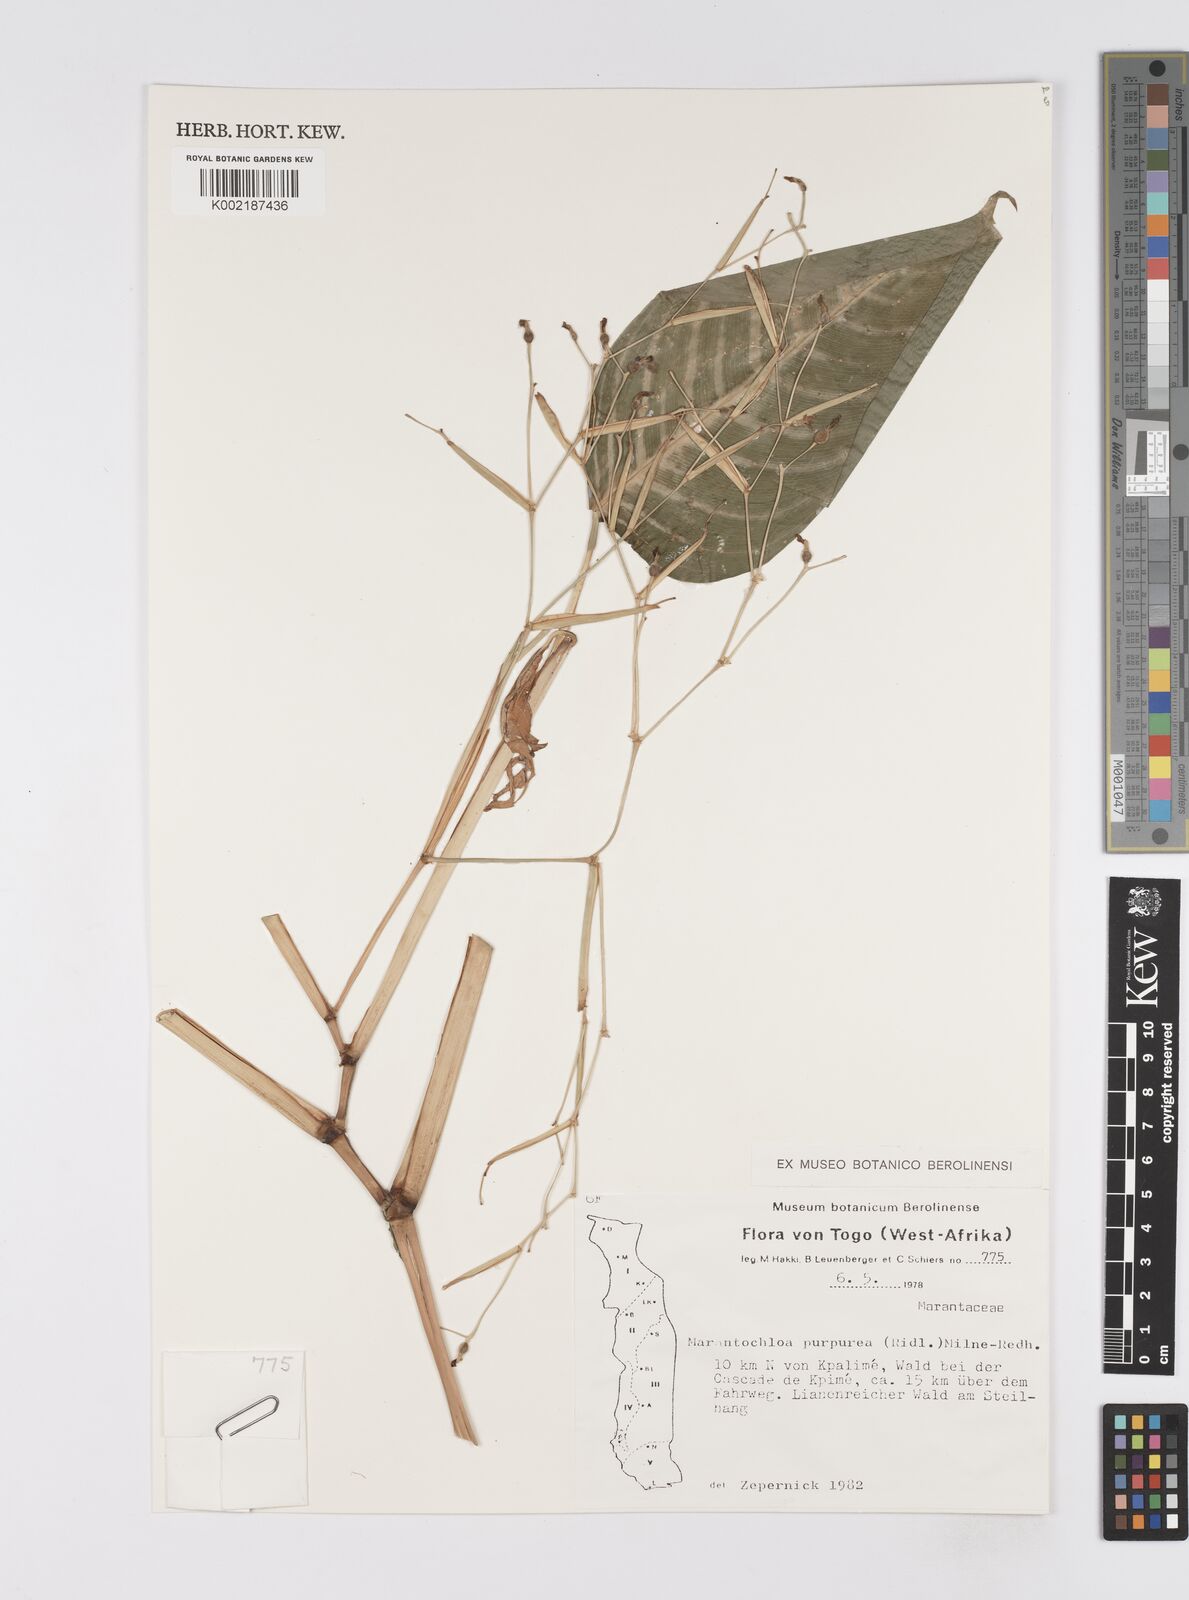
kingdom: Plantae
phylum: Tracheophyta
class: Liliopsida
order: Zingiberales
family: Marantaceae
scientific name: Marantaceae
